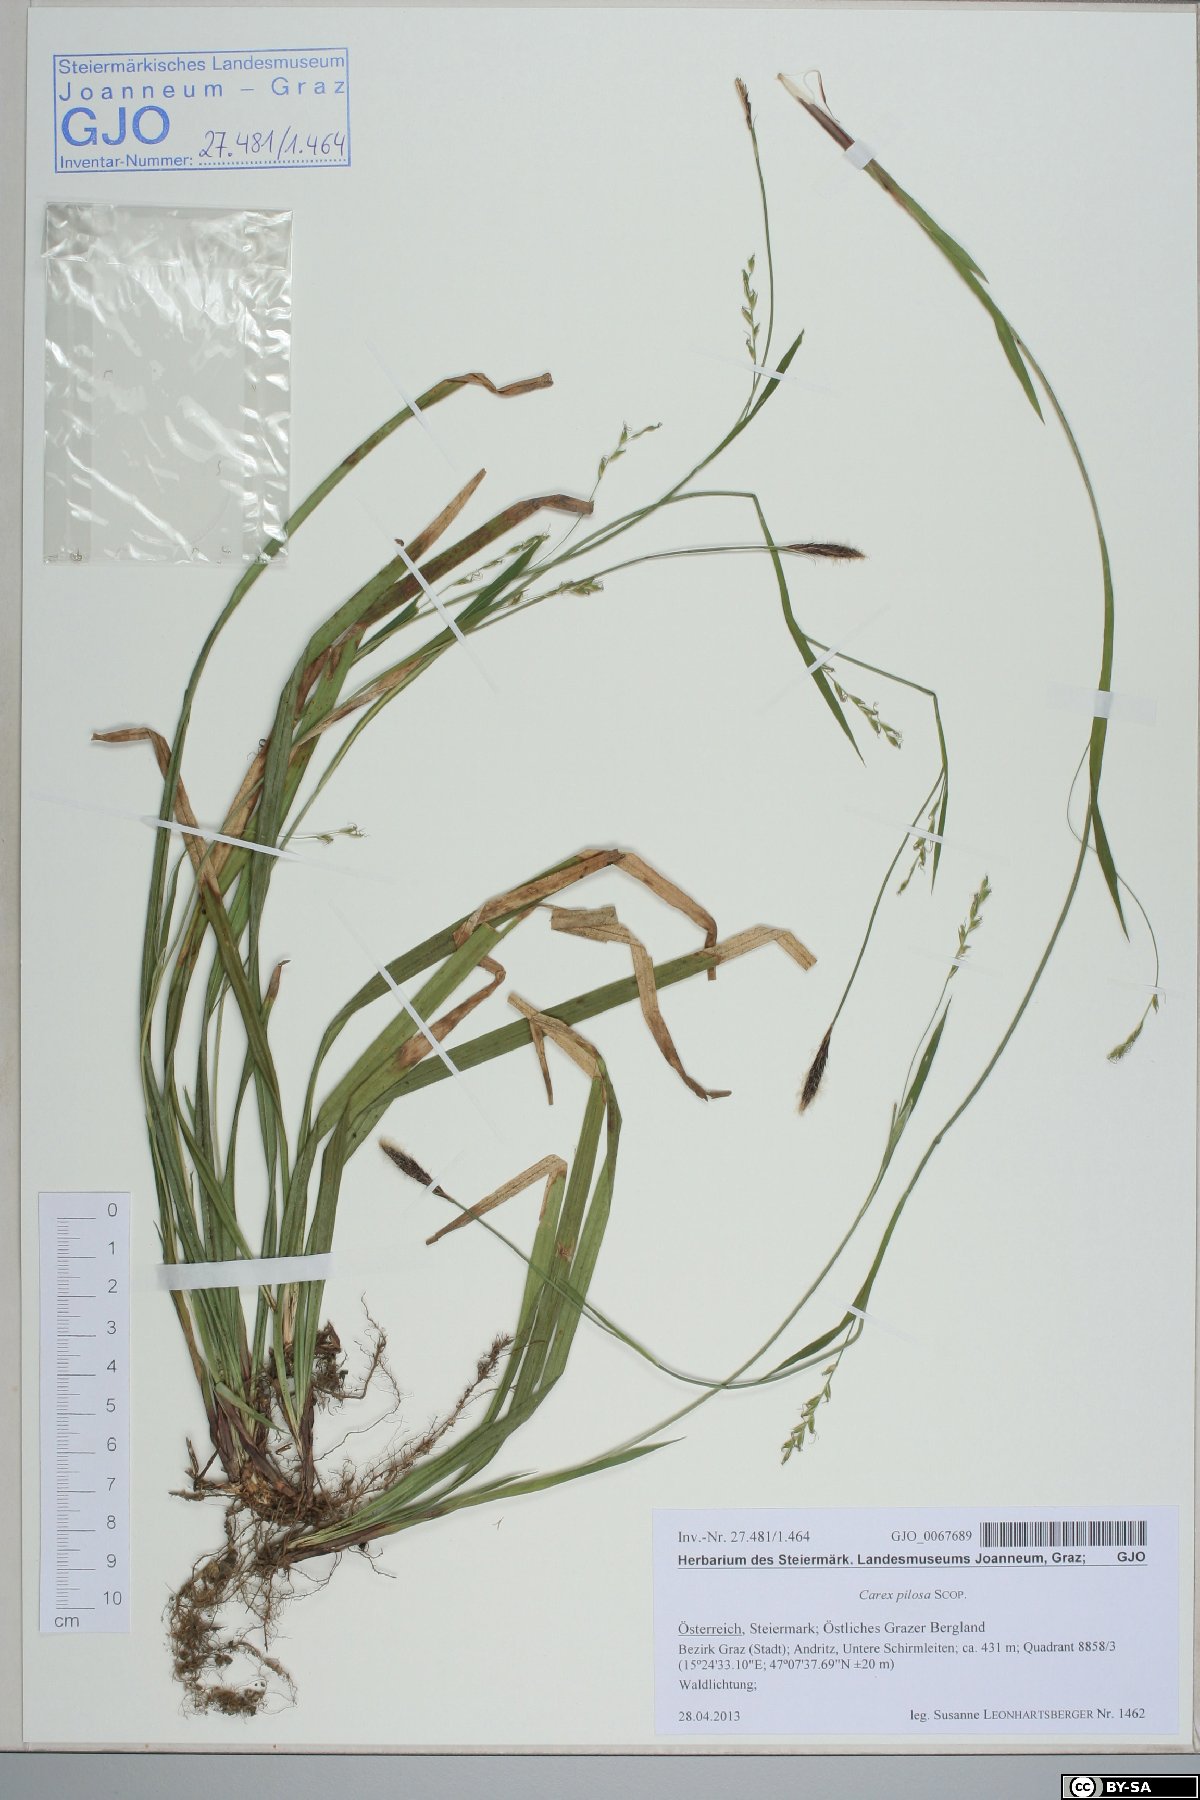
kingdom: Plantae
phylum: Tracheophyta
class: Liliopsida
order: Poales
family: Cyperaceae
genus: Carex
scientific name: Carex pilosa
